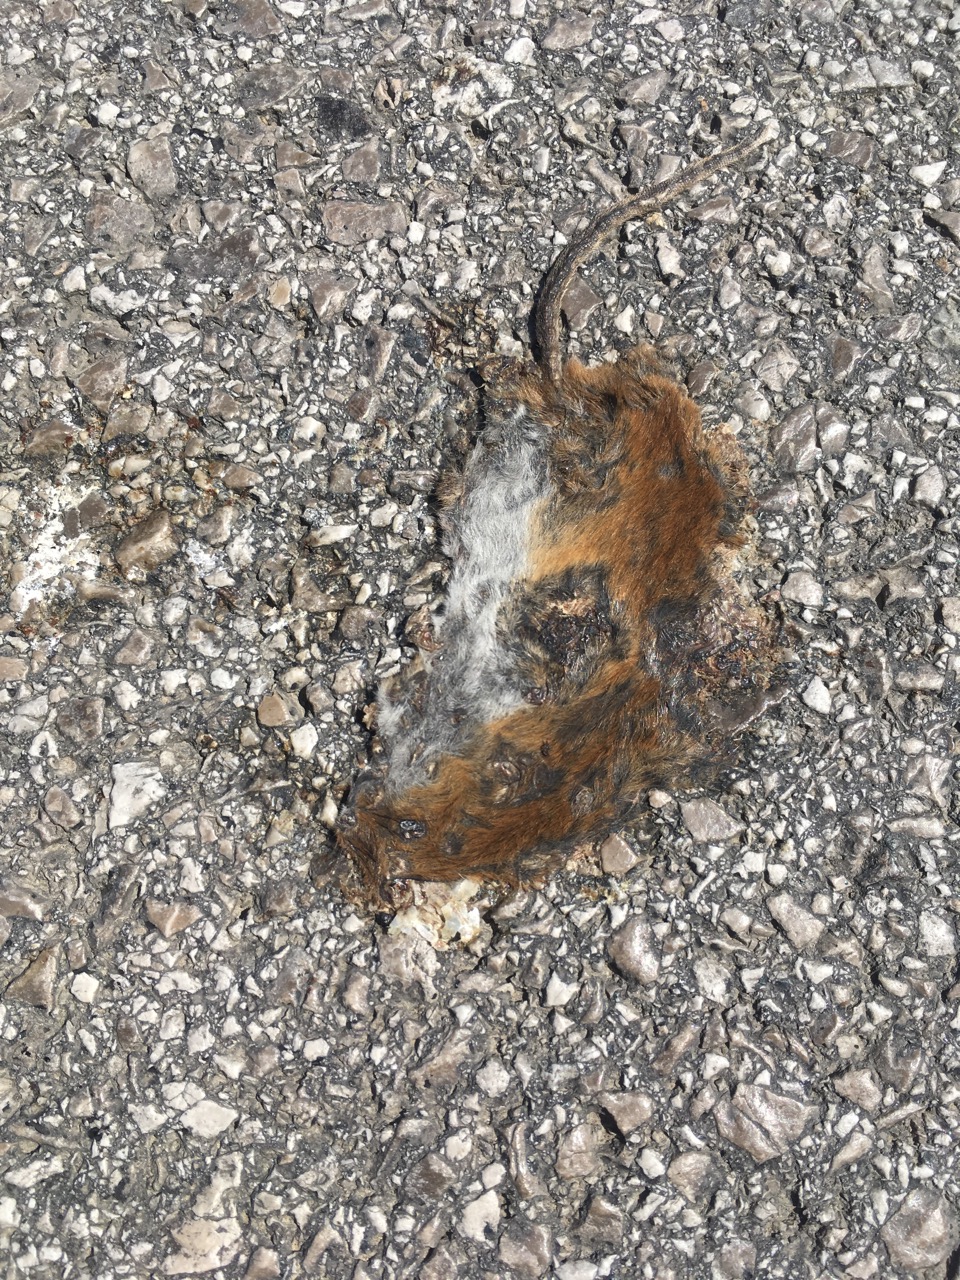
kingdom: Animalia
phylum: Chordata
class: Mammalia
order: Rodentia
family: Cricetidae
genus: Myodes
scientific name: Myodes glareolus
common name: Bank vole
